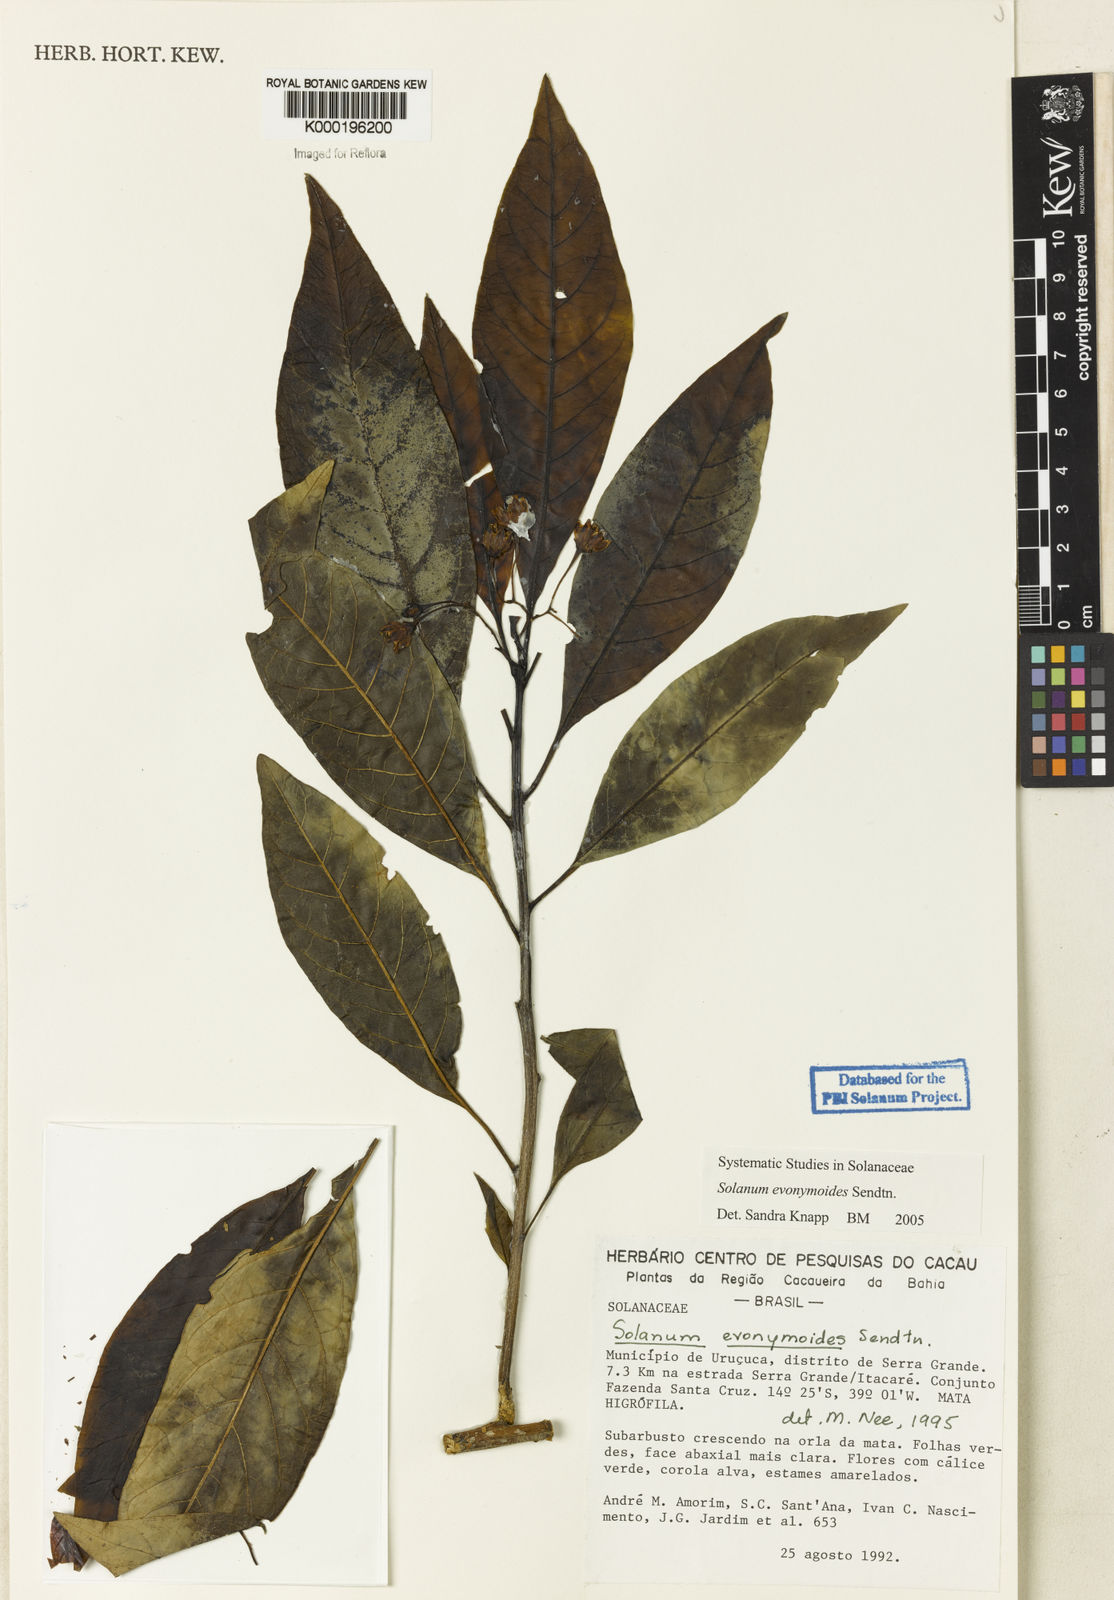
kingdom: Plantae
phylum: Tracheophyta
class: Magnoliopsida
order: Solanales
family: Solanaceae
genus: Solanum
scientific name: Solanum evonymoides
